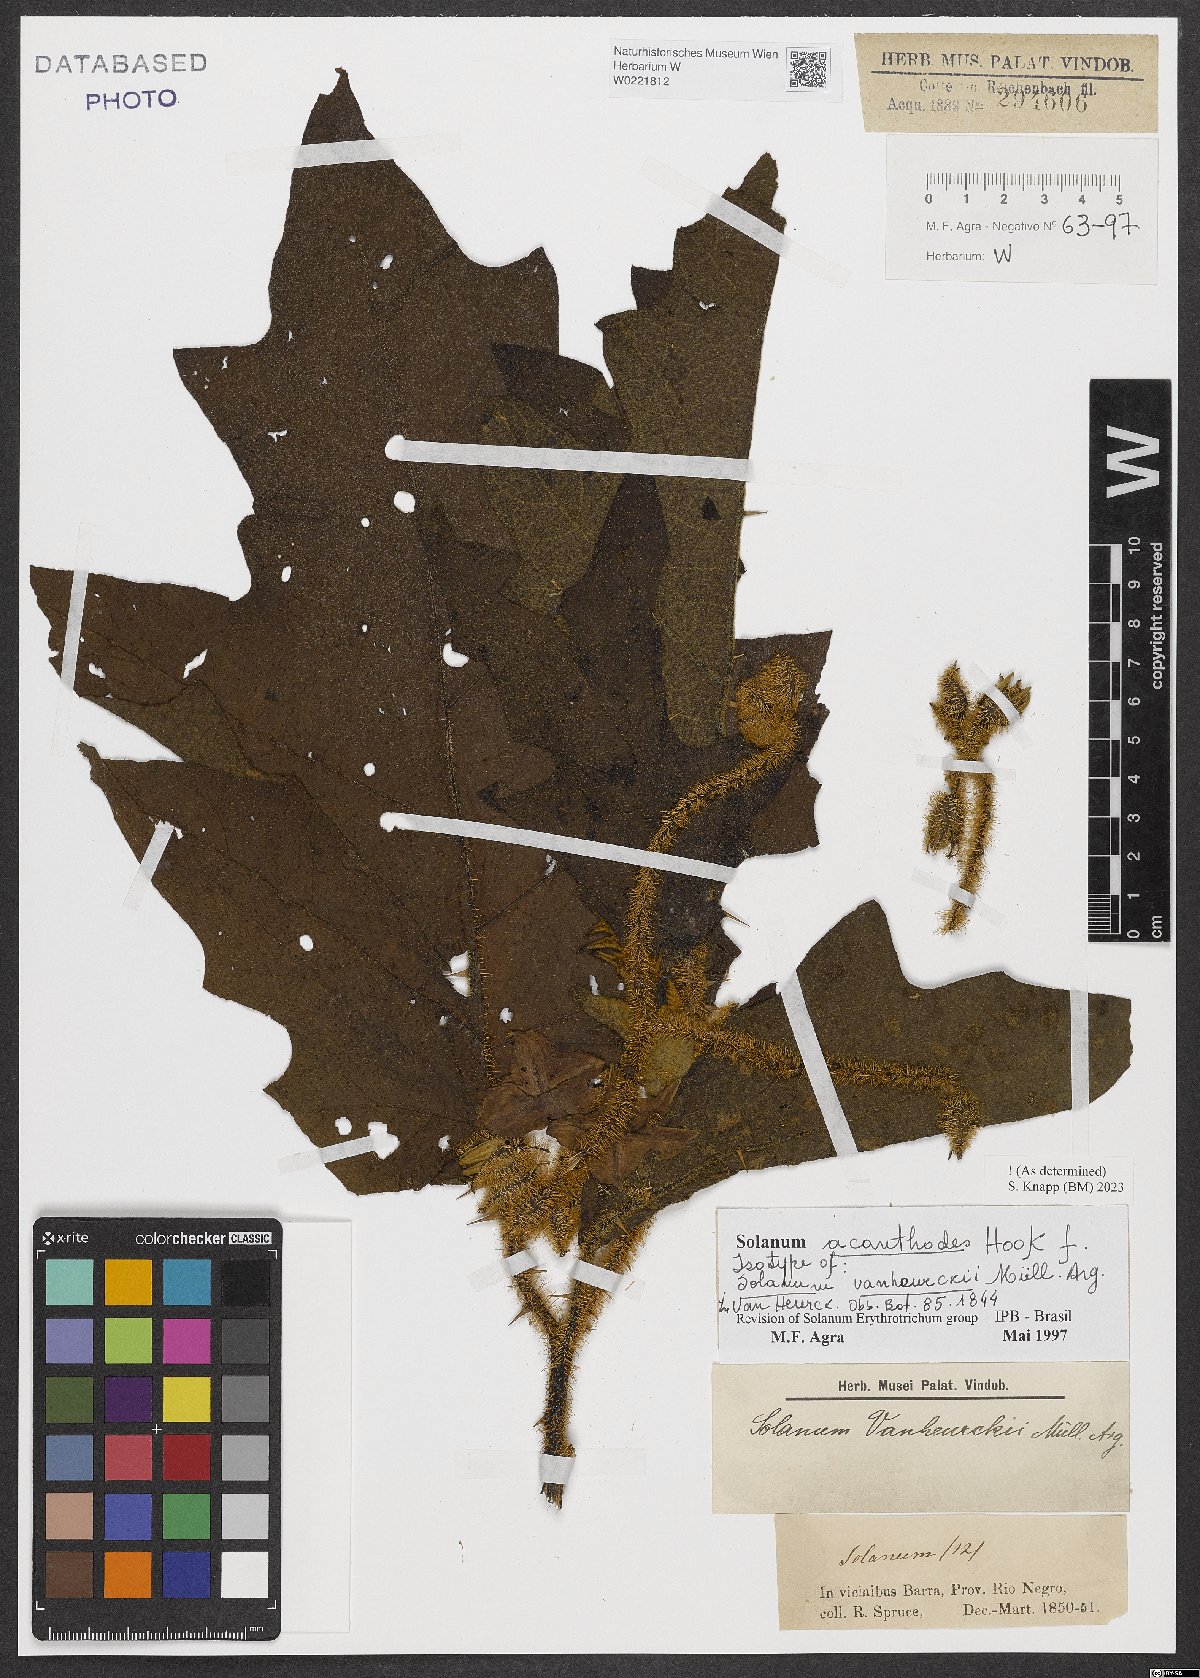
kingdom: Plantae
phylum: Tracheophyta
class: Magnoliopsida
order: Solanales
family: Solanaceae
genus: Solanum
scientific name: Solanum vanheurckii
